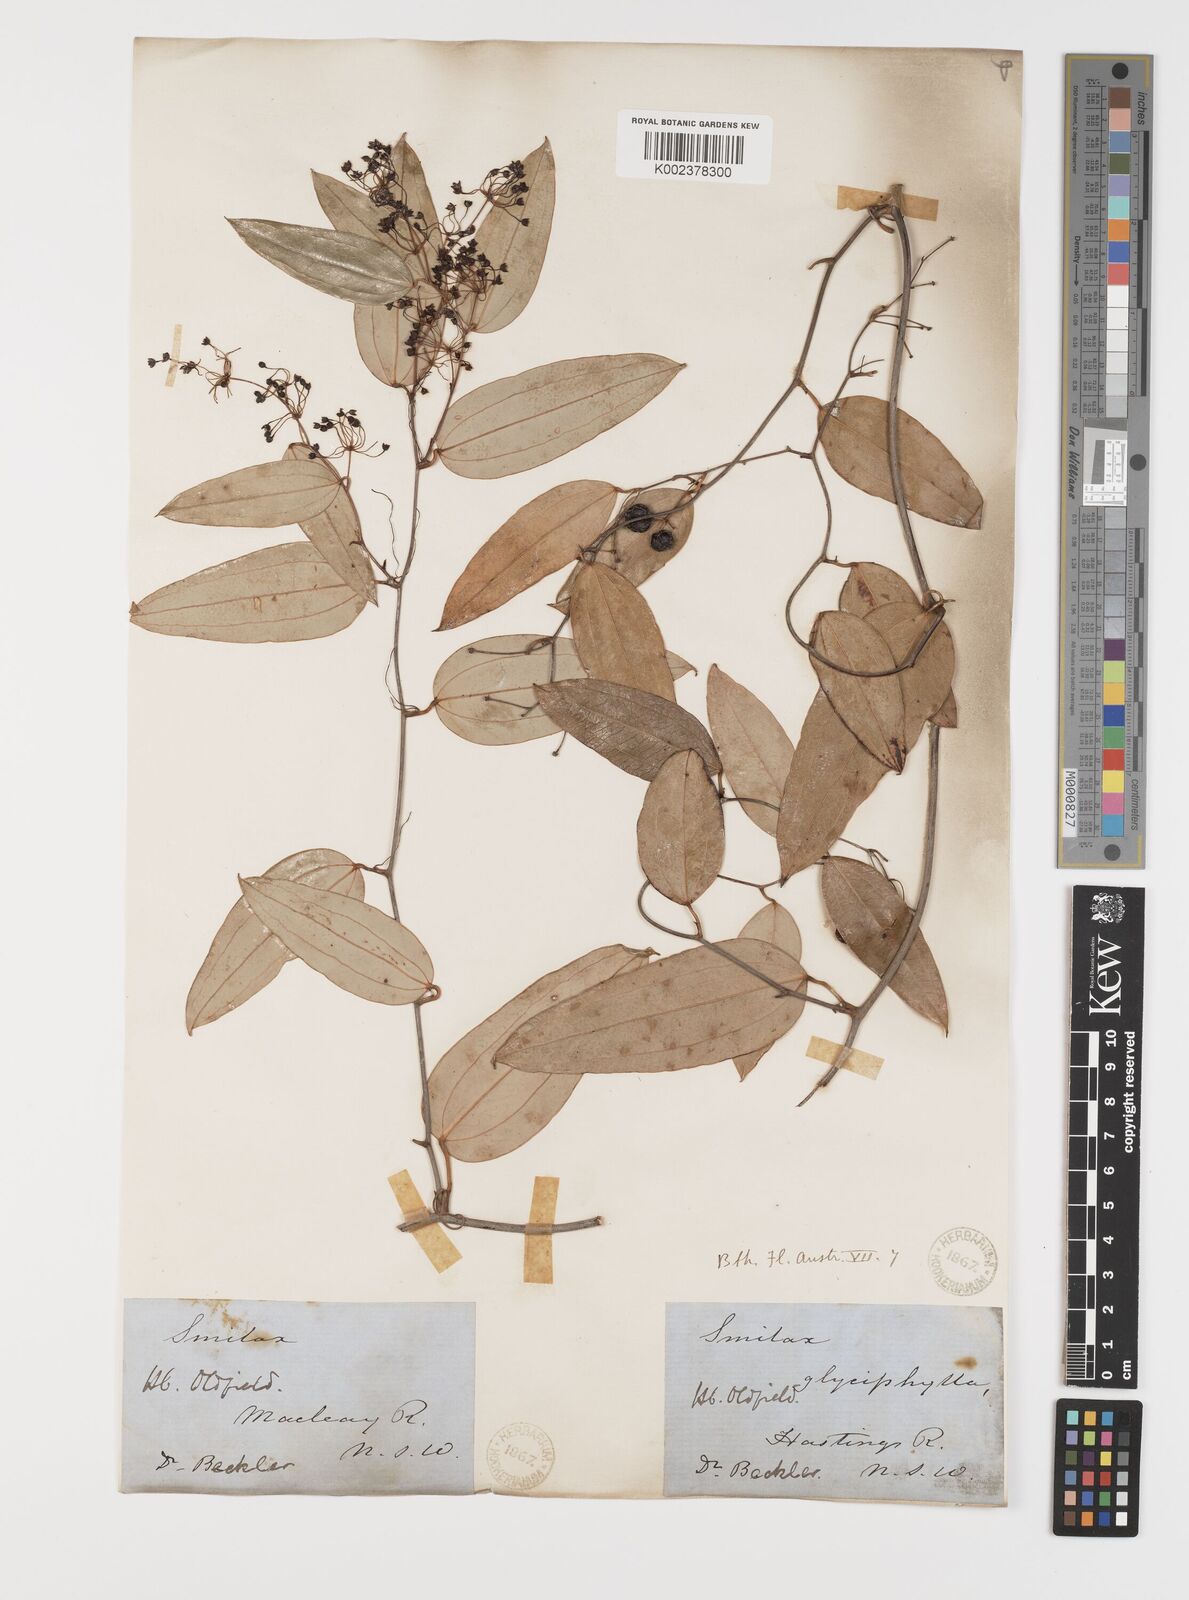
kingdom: Plantae
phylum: Tracheophyta
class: Liliopsida
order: Liliales
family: Smilacaceae
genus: Smilax
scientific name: Smilax glyciphylla
